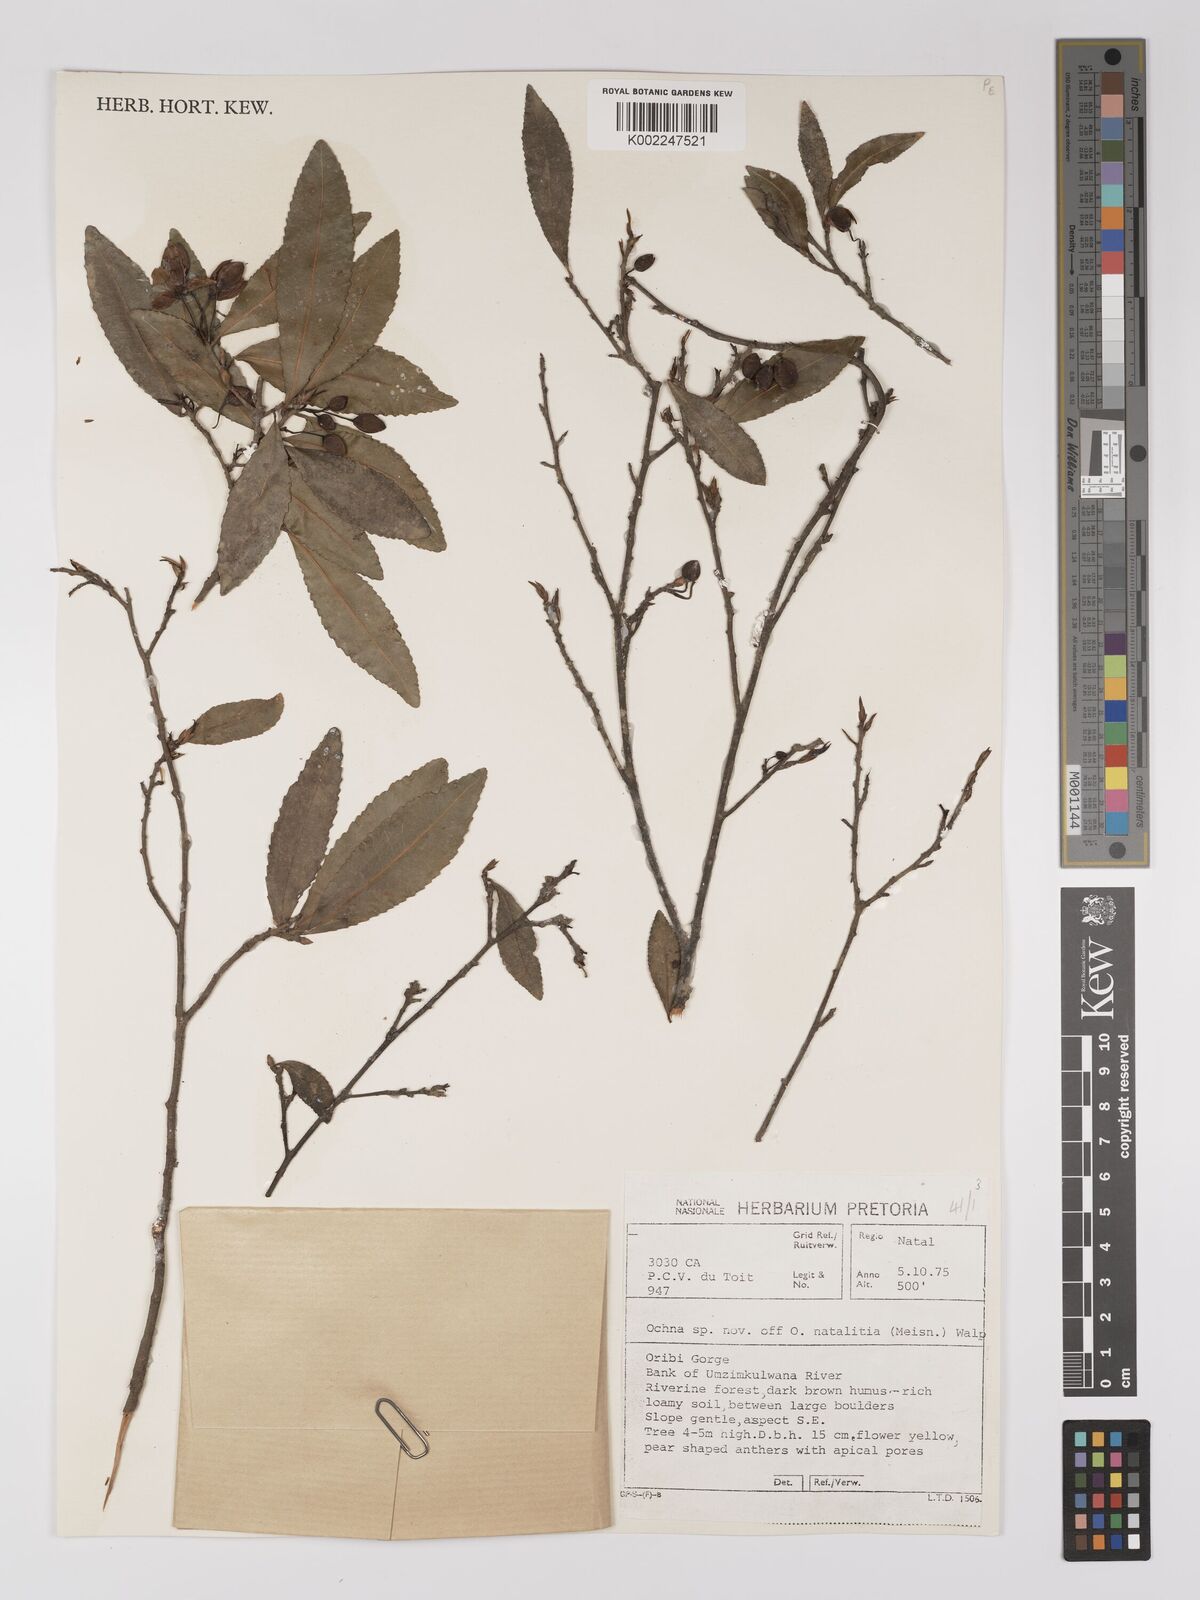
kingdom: Plantae
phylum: Tracheophyta
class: Magnoliopsida
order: Malpighiales
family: Ochnaceae
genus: Ochna
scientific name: Ochna
